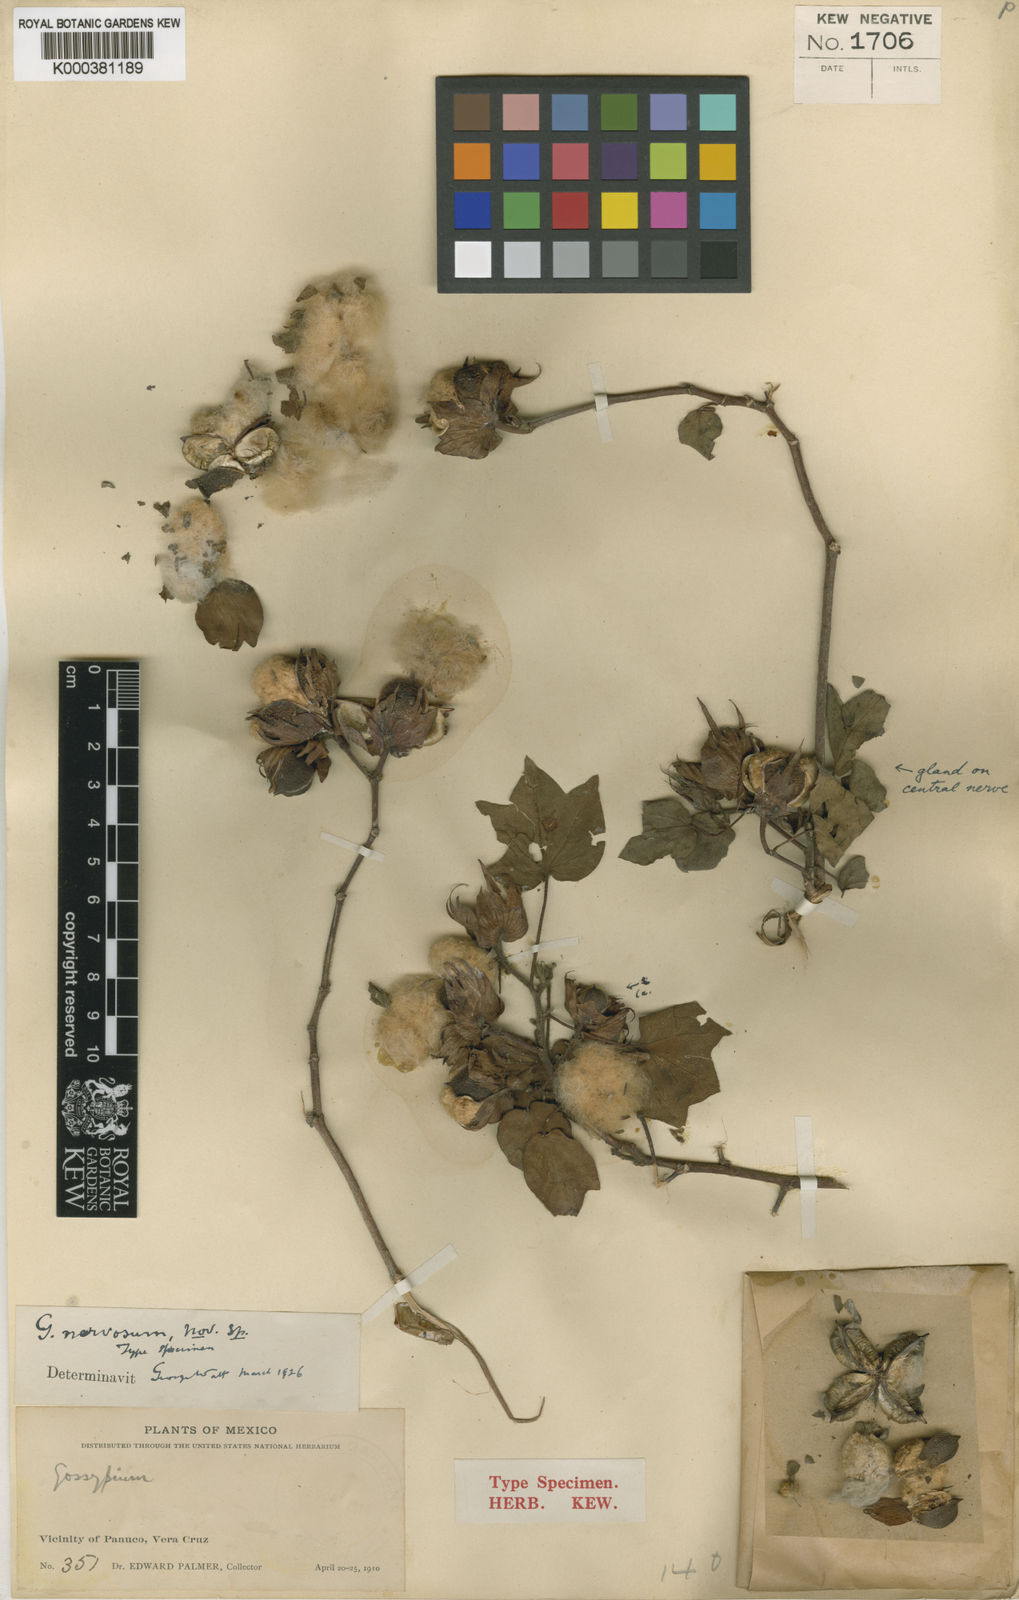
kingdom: Plantae
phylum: Tracheophyta
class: Magnoliopsida
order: Malvales
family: Malvaceae
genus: Gossypium
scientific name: Gossypium hirsutum
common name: Cotton
